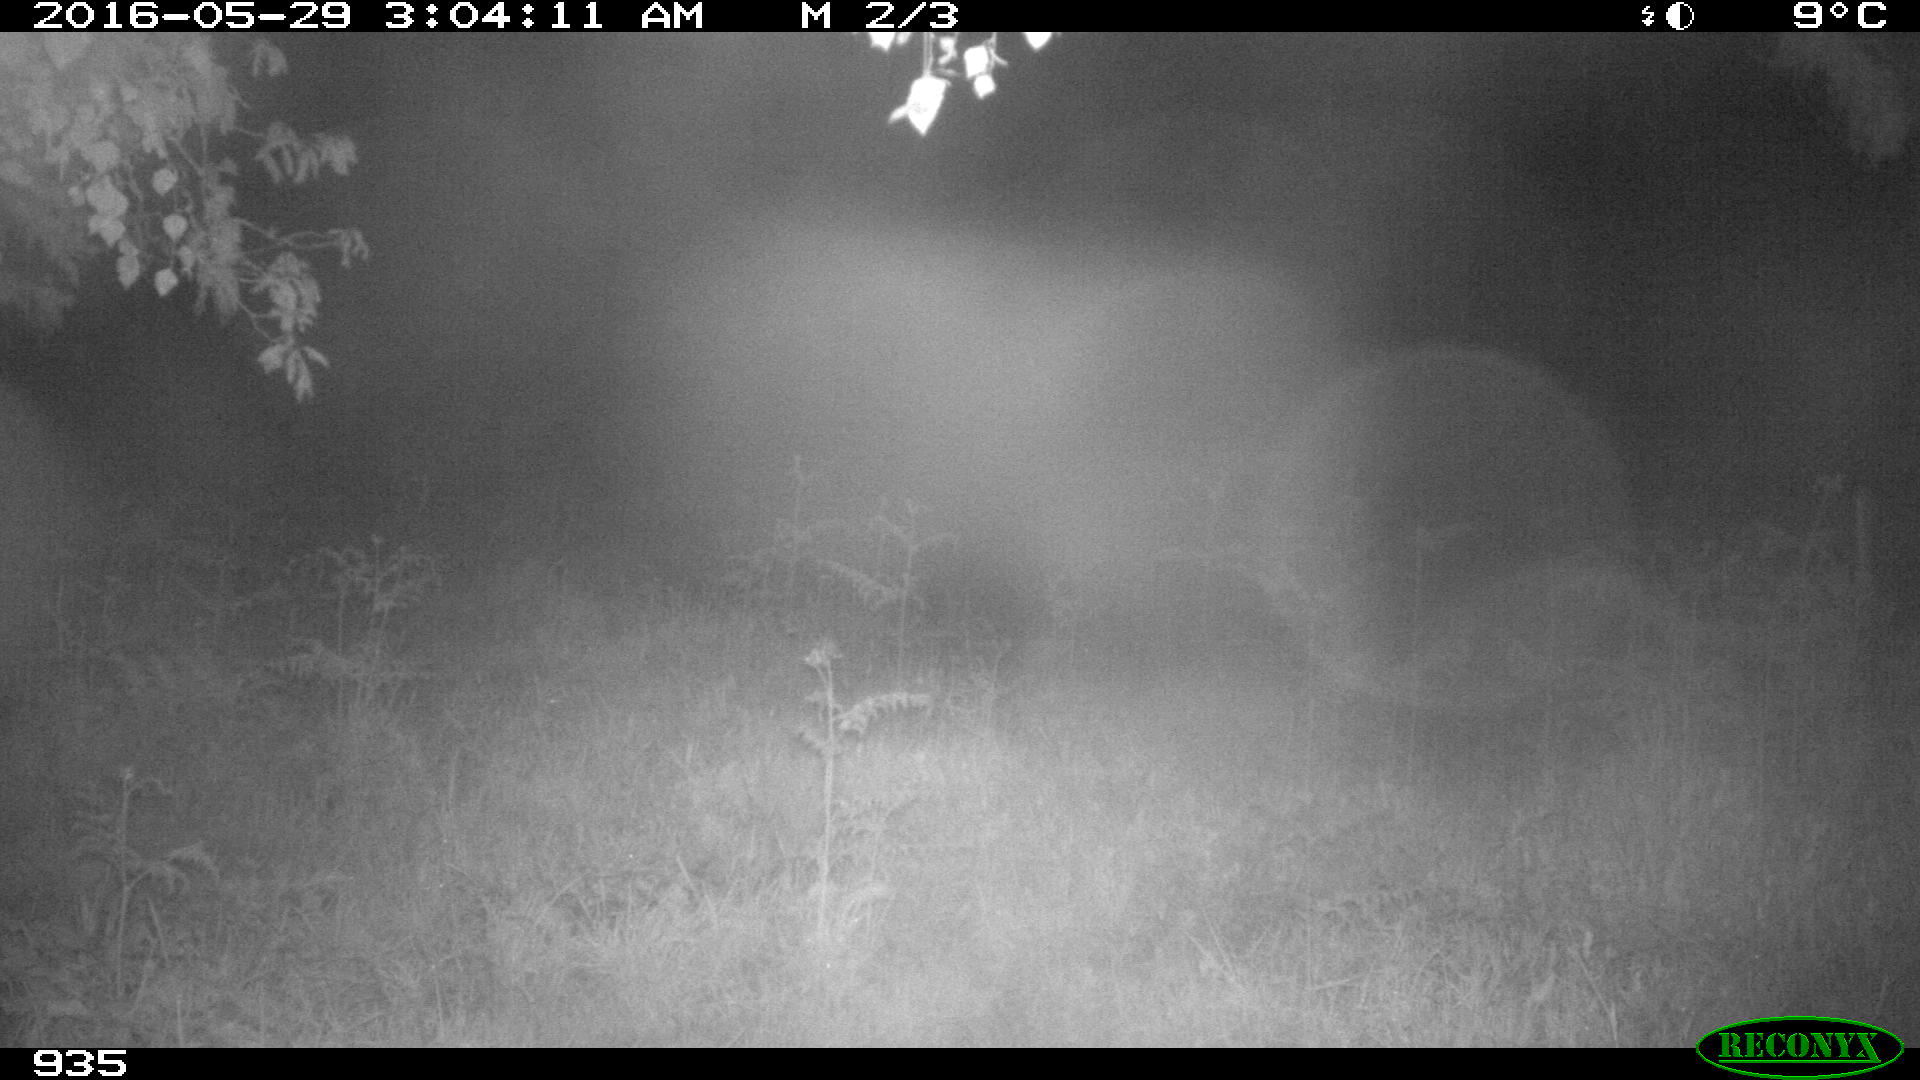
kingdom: Animalia
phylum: Chordata
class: Mammalia
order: Artiodactyla
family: Suidae
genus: Sus
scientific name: Sus scrofa
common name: Wild boar
